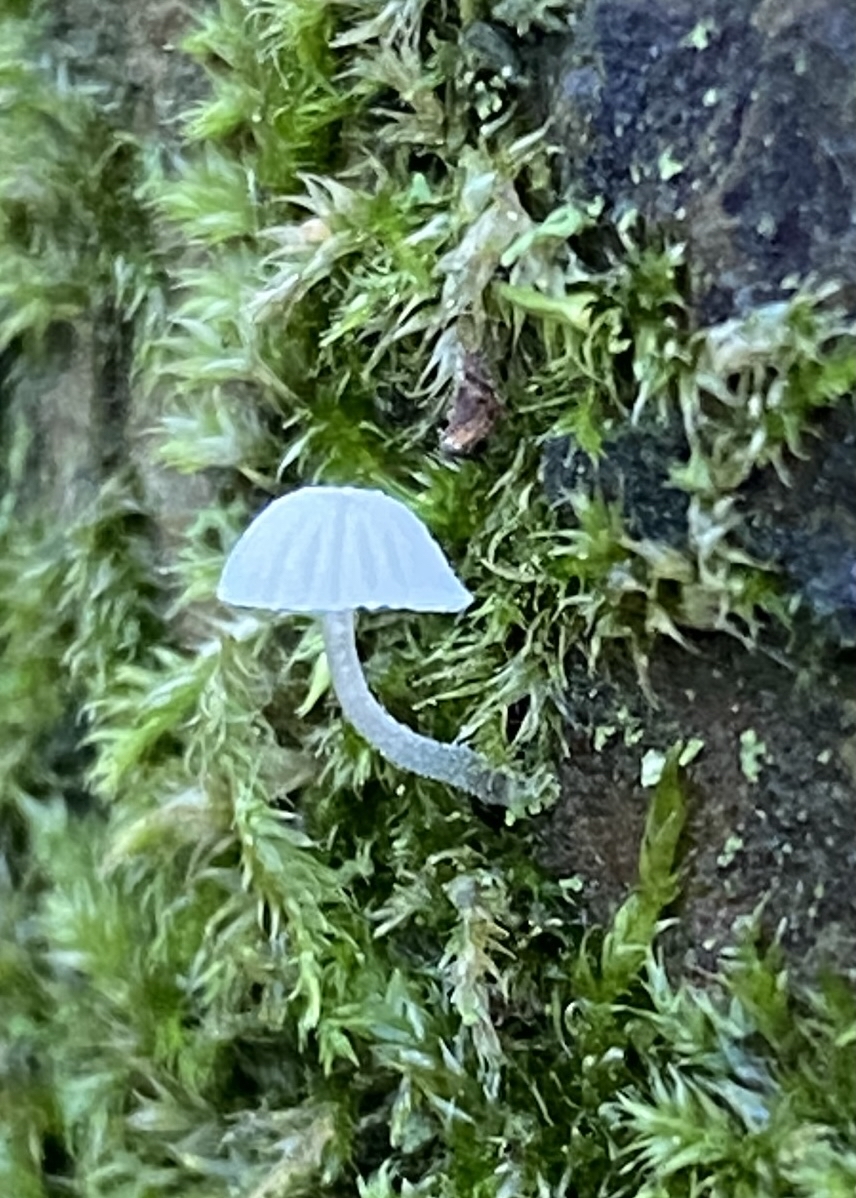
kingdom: Fungi
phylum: Basidiomycota
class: Agaricomycetes
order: Agaricales
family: Mycenaceae
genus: Mycena
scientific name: Mycena
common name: huesvamp
